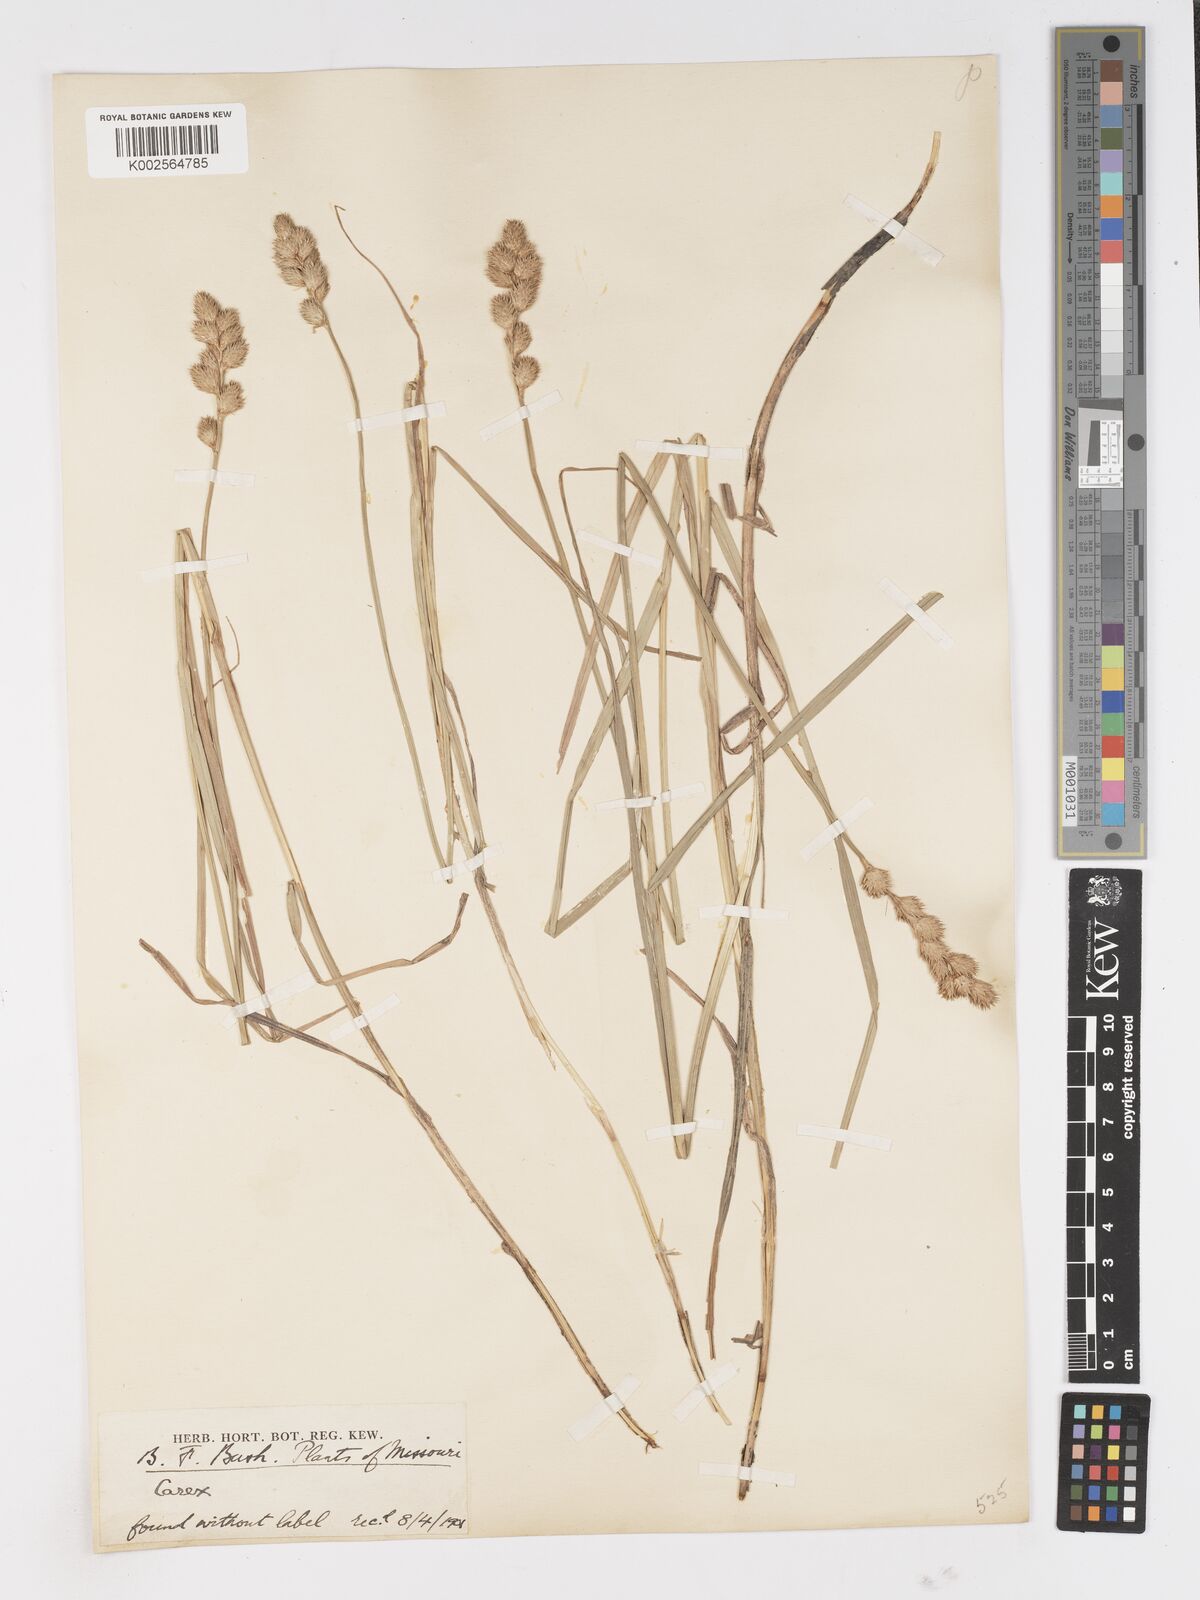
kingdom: Plantae
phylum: Tracheophyta
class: Liliopsida
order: Poales
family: Cyperaceae
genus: Carex
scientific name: Carex
